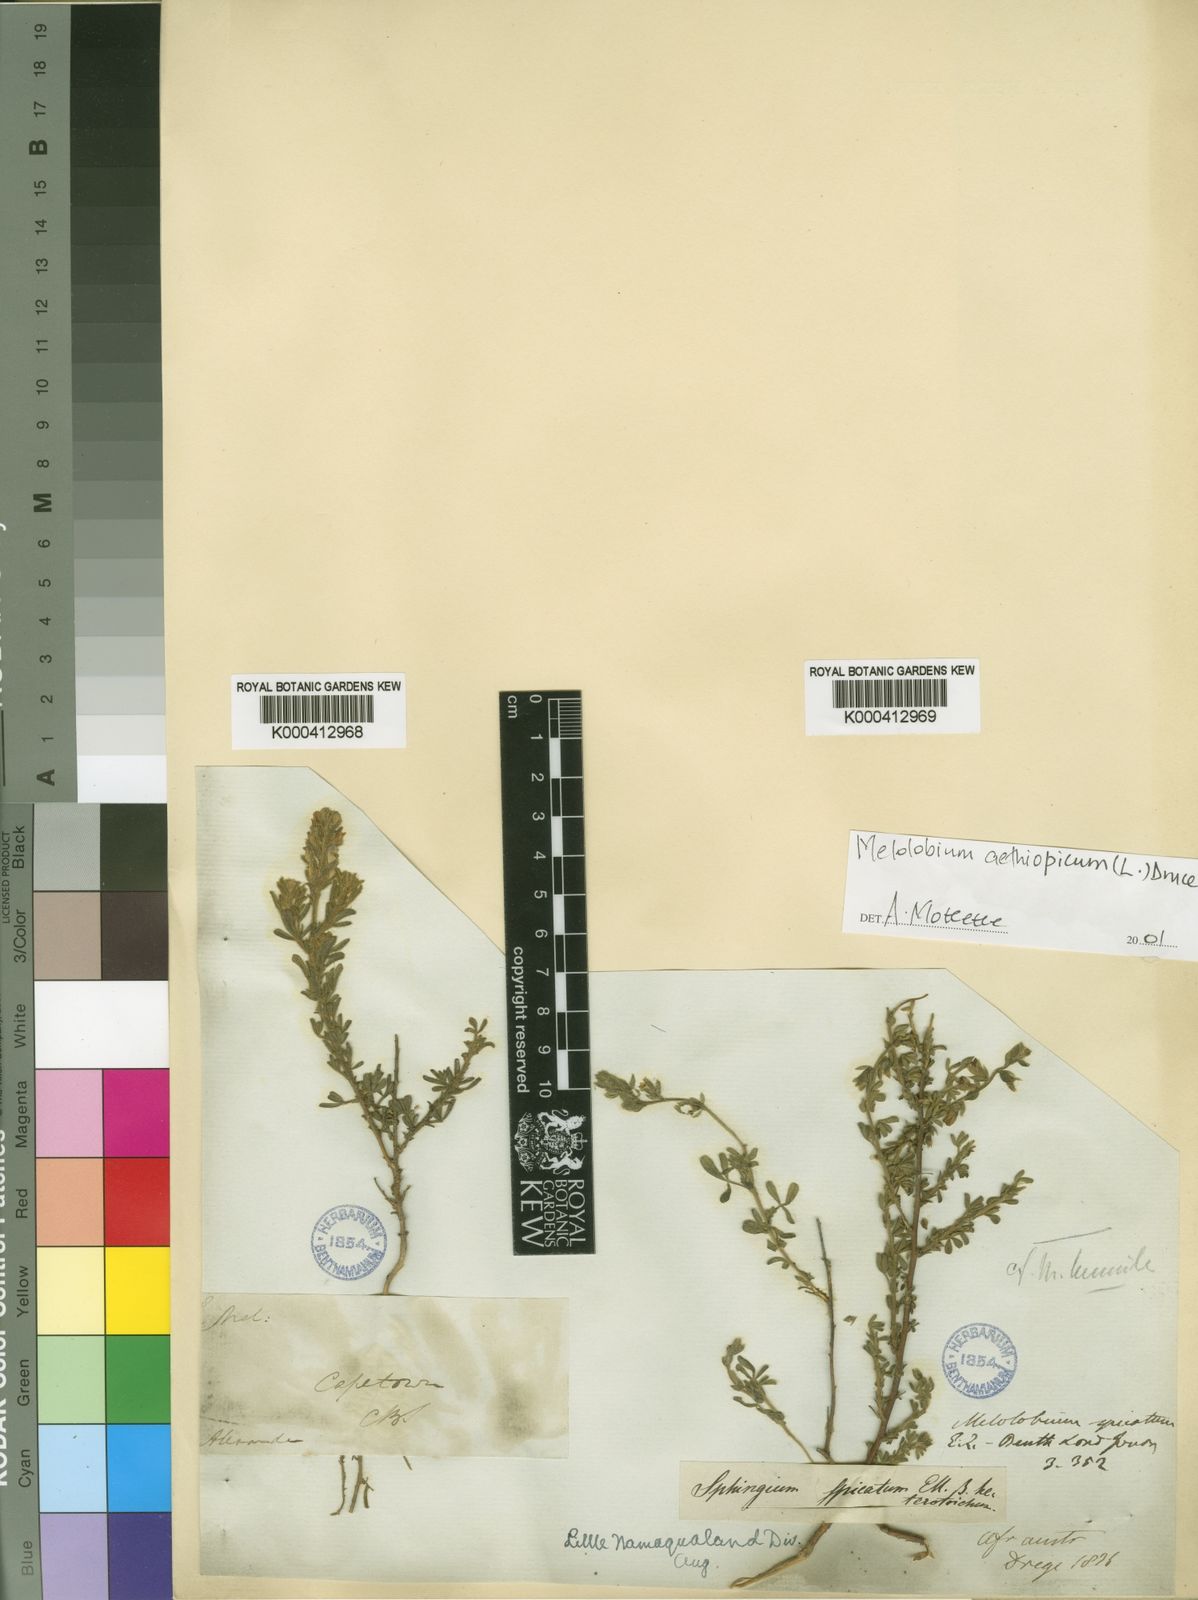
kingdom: Plantae
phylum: Tracheophyta
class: Magnoliopsida
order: Fabales
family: Fabaceae
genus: Melolobium
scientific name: Melolobium aethiopicum
